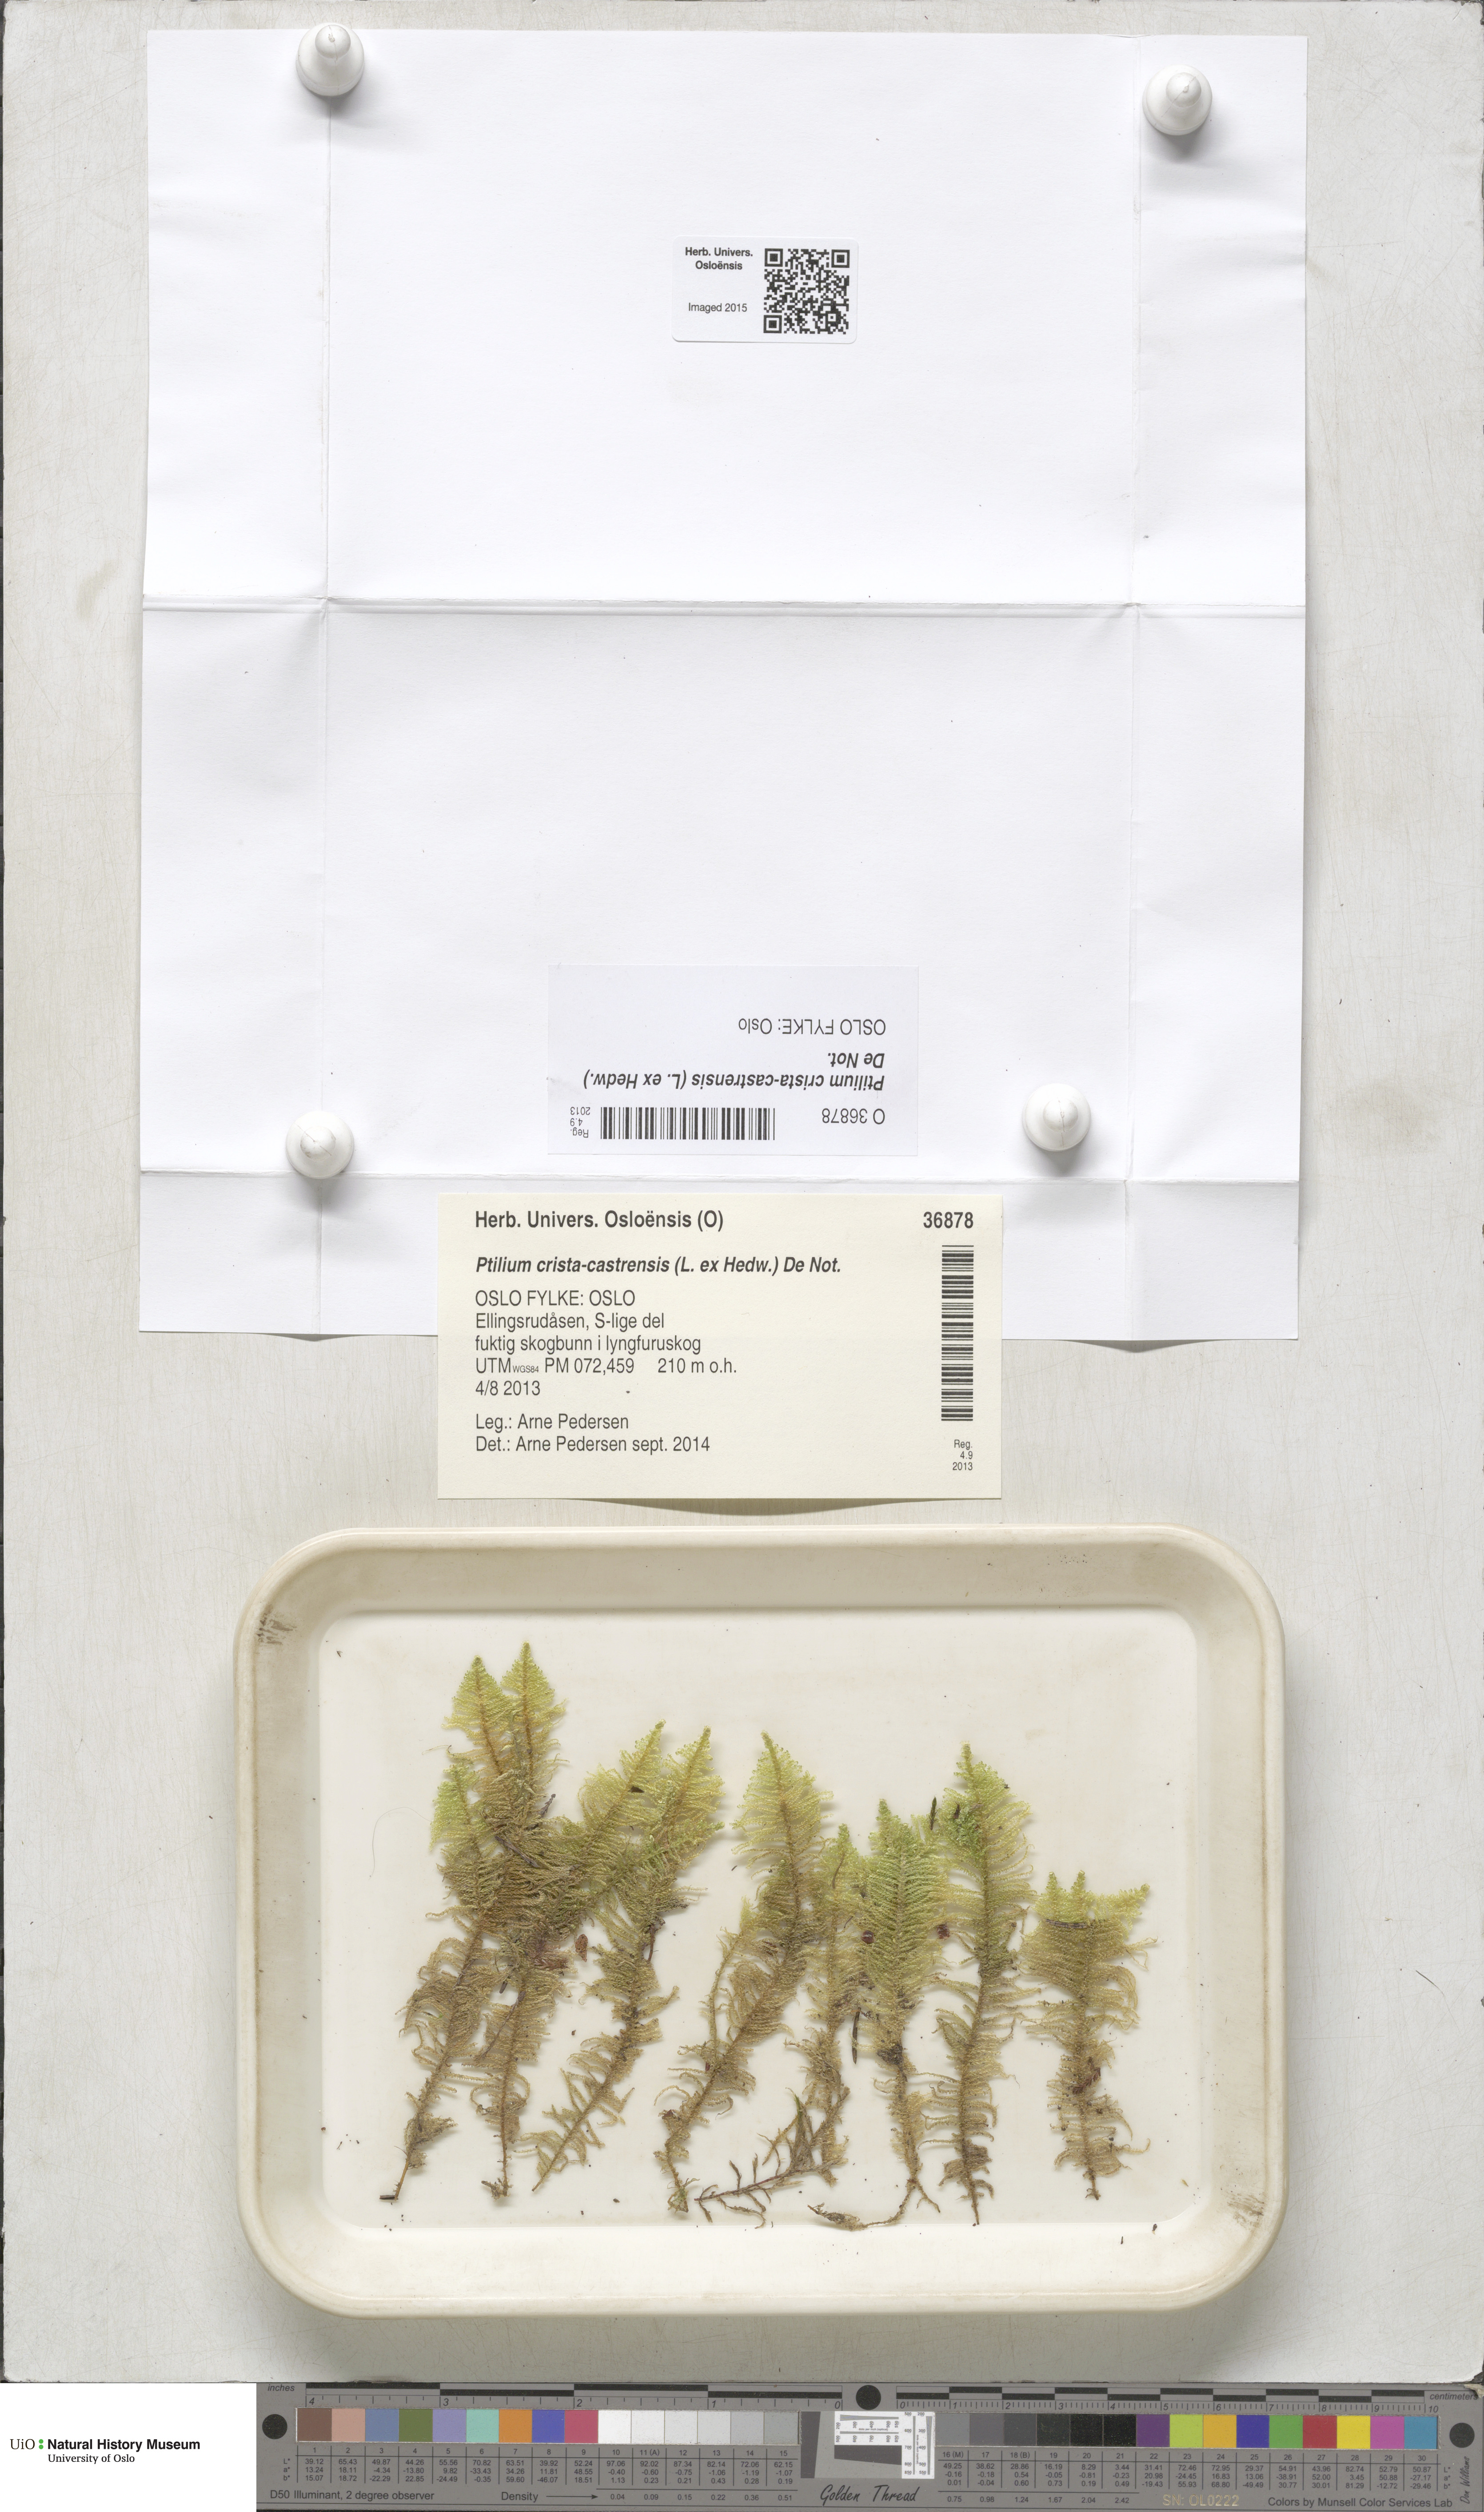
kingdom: Plantae
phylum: Bryophyta
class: Bryopsida
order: Hypnales
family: Pylaisiaceae
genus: Ptilium
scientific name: Ptilium crista-castrensis
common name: Knight's plume moss
